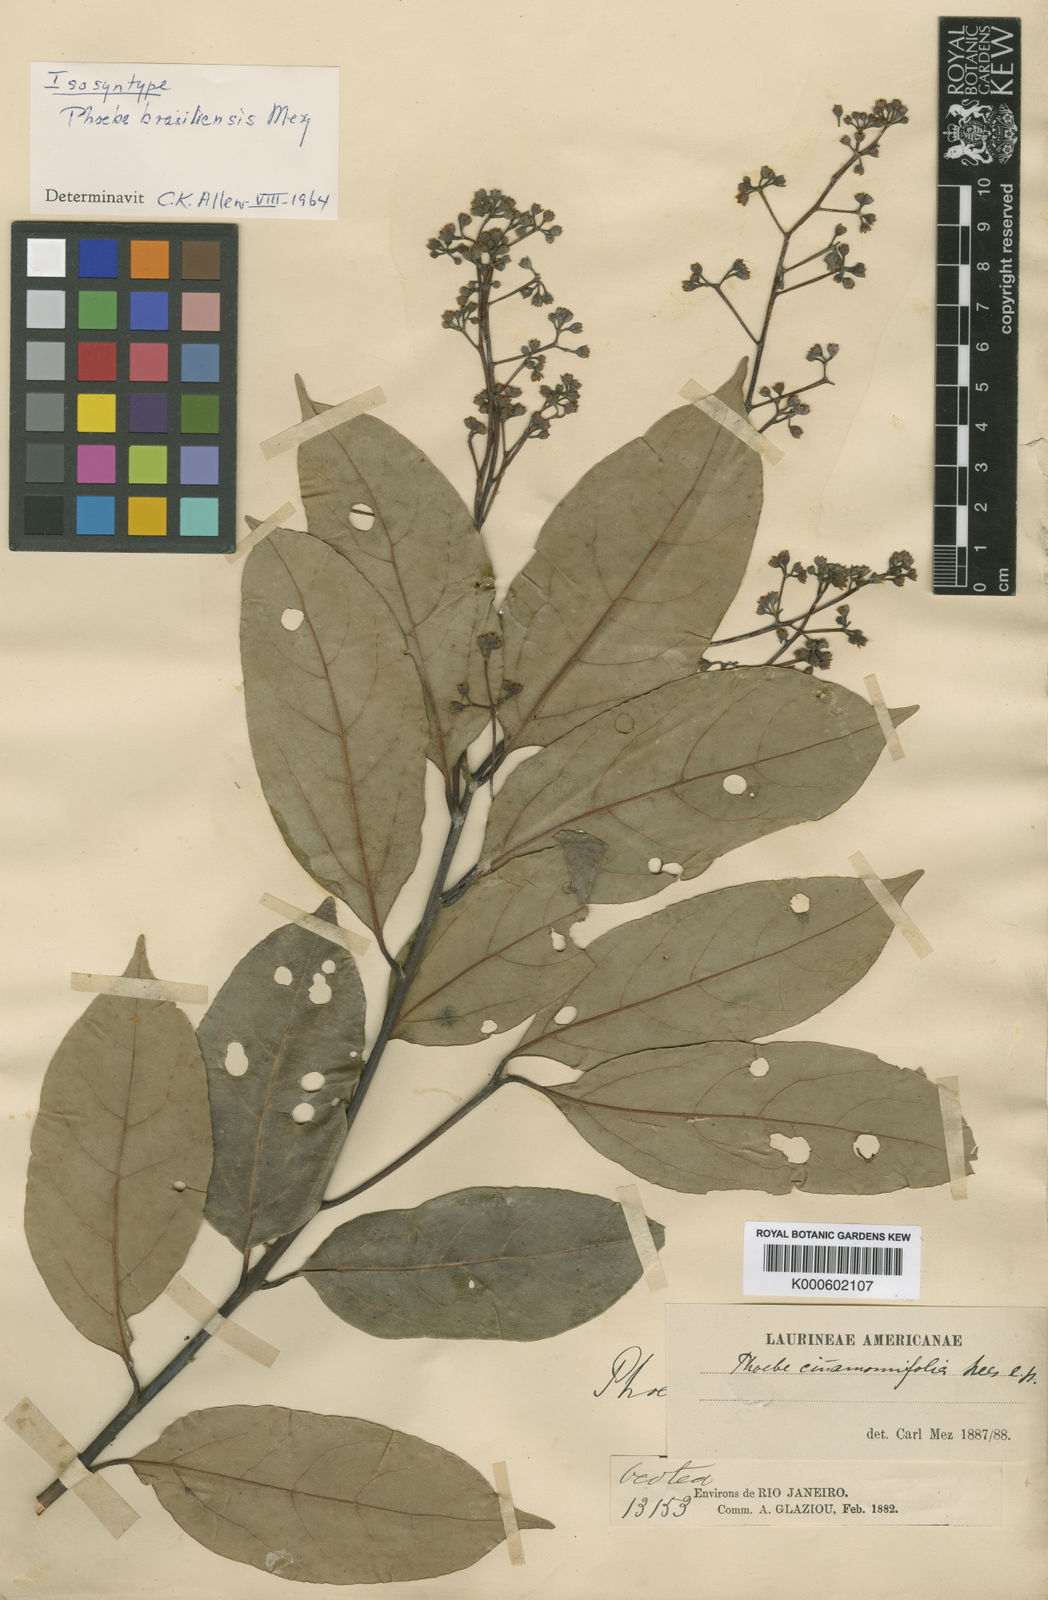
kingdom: Plantae
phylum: Tracheophyta
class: Magnoliopsida
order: Laurales
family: Lauraceae
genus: Aiouea
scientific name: Aiouea montana
